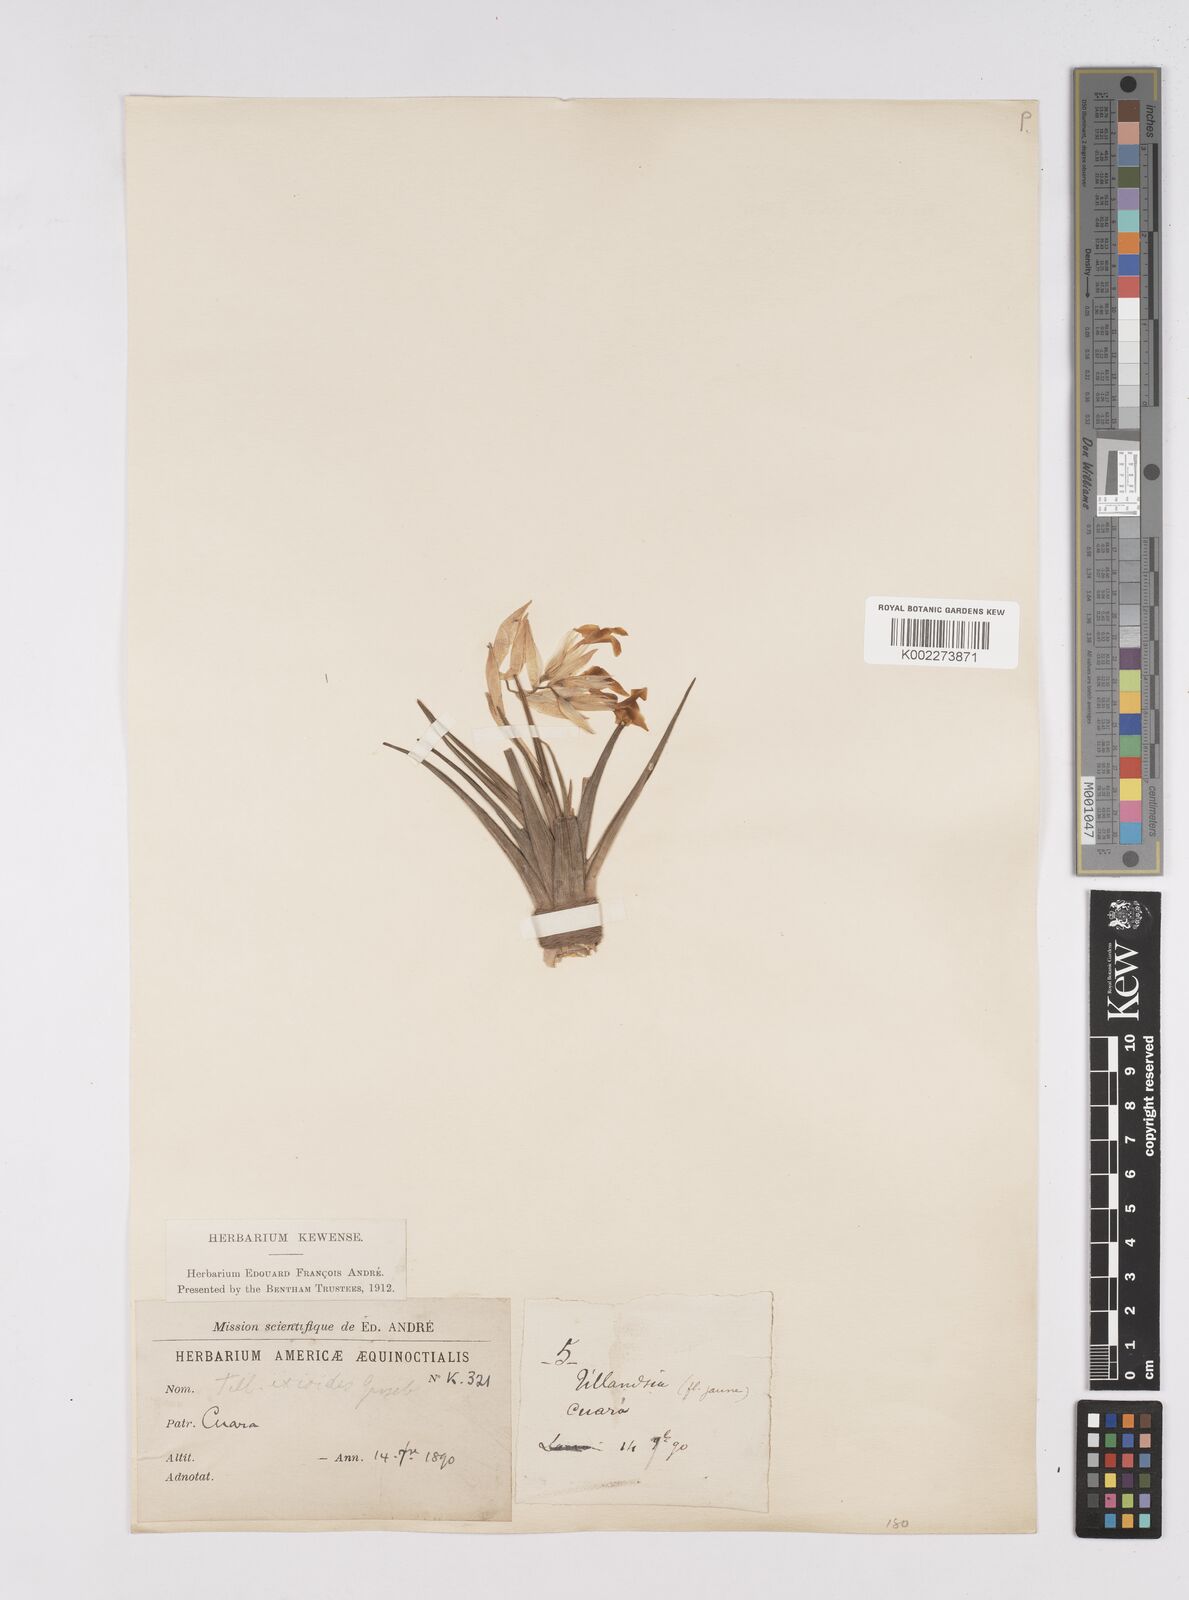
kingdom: Plantae
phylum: Tracheophyta
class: Liliopsida
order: Poales
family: Bromeliaceae
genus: Tillandsia
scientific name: Tillandsia ixioides
